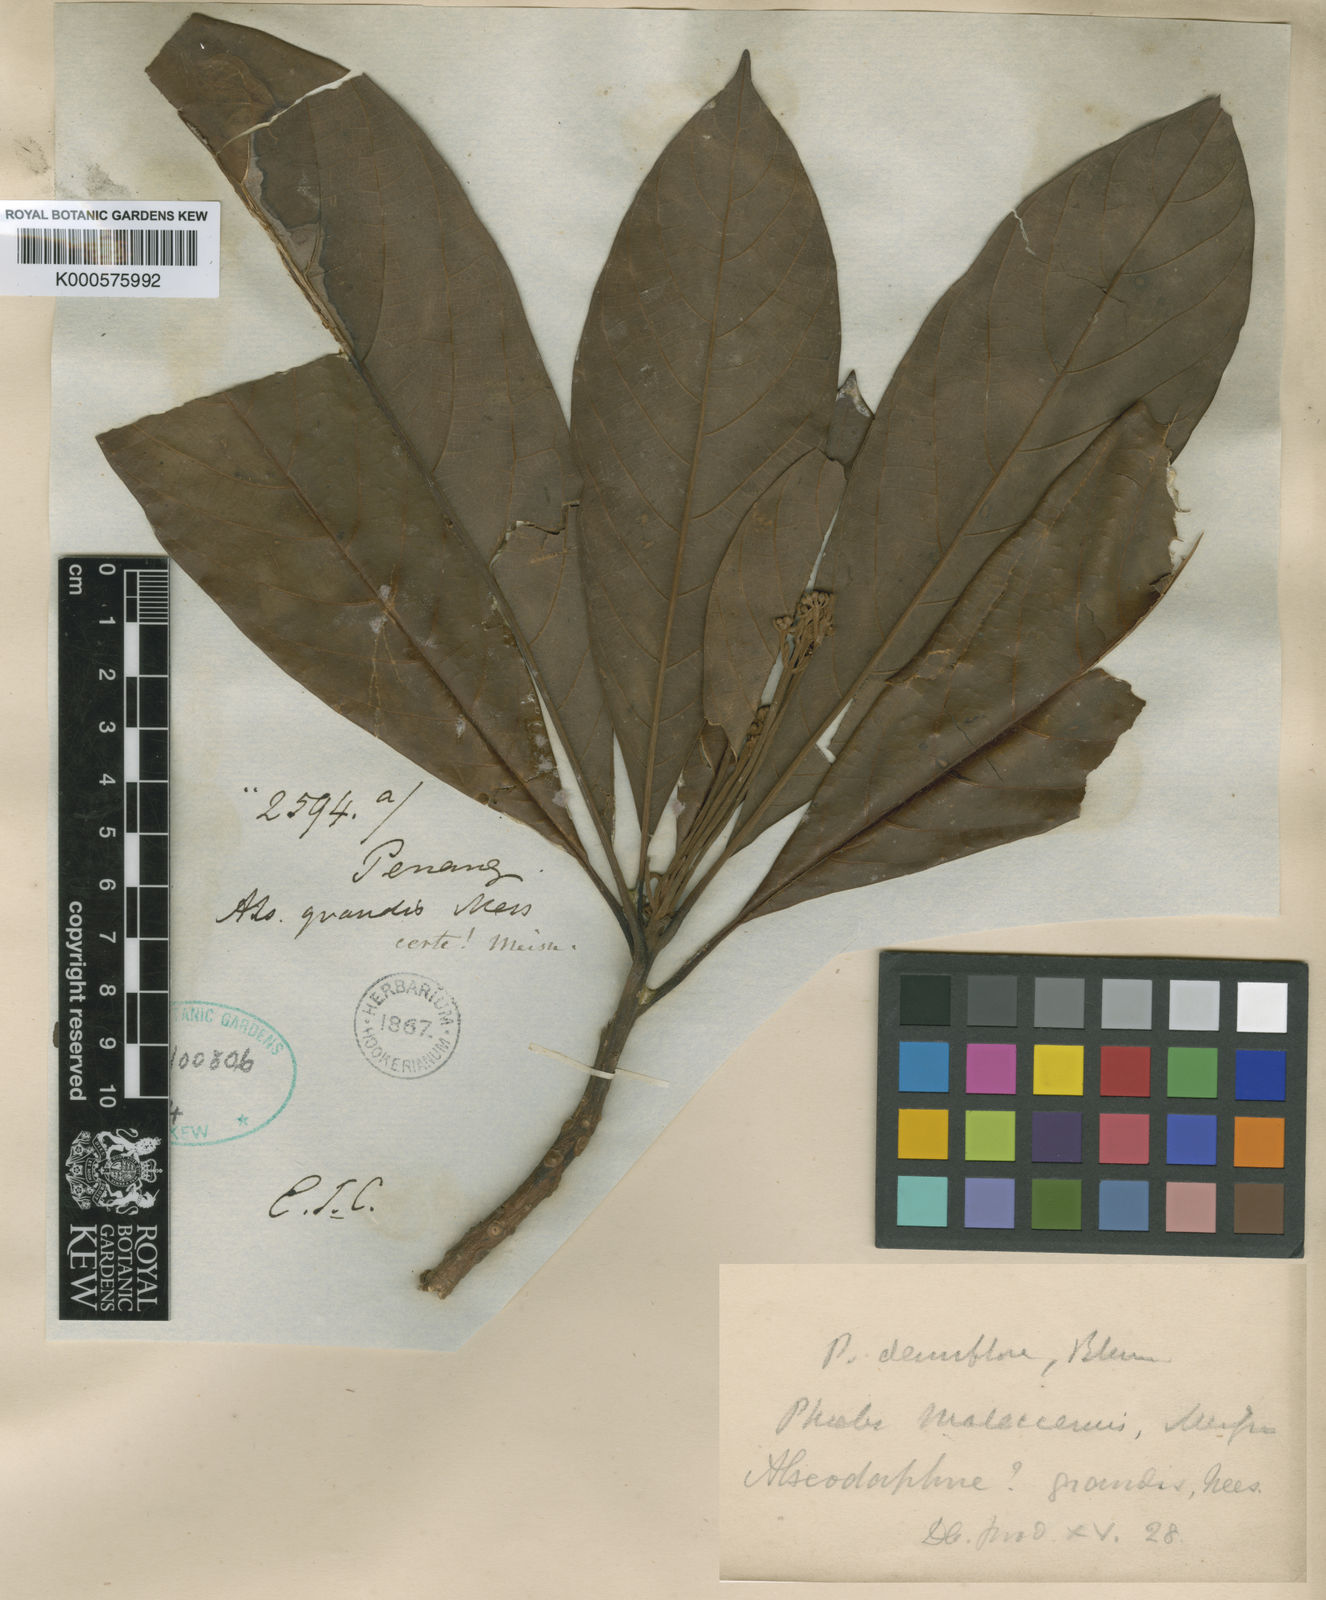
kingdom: Plantae
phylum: Tracheophyta
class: Magnoliopsida
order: Laurales
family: Lauraceae
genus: Phoebe
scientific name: Phoebe grandis
